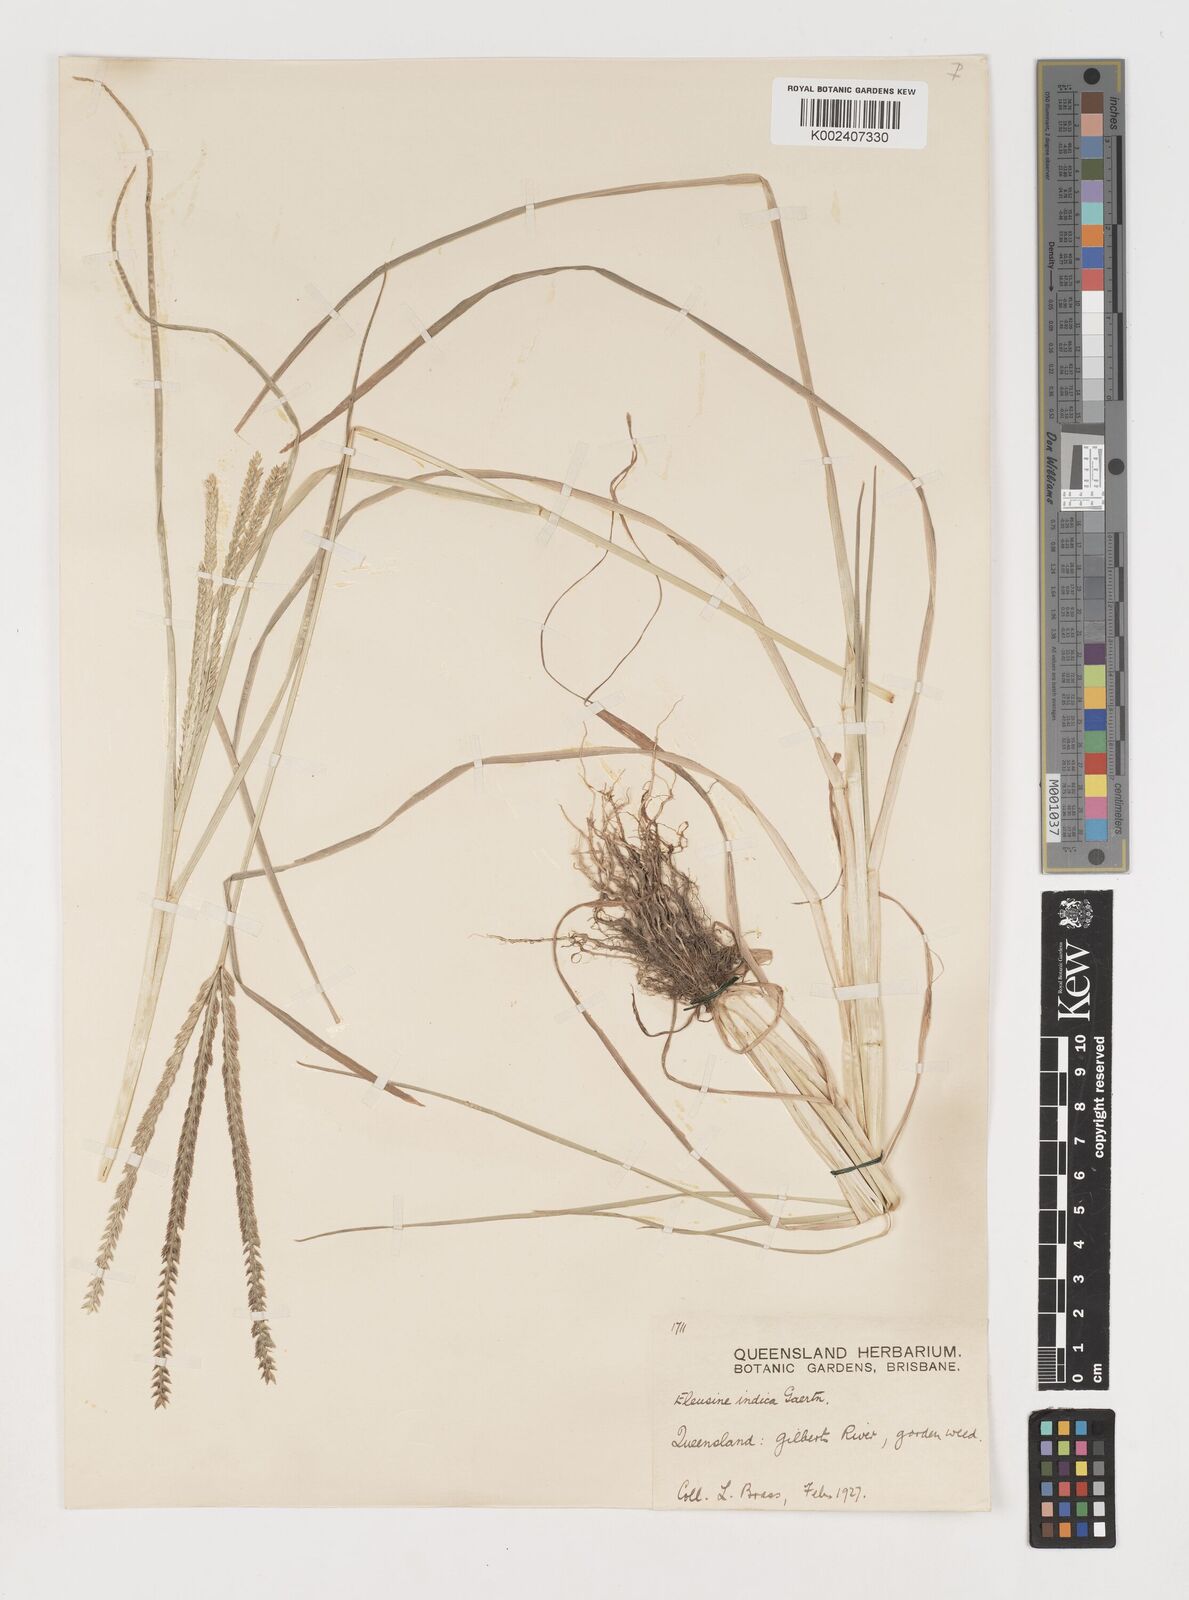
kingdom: Plantae
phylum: Tracheophyta
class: Liliopsida
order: Poales
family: Poaceae
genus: Eleusine
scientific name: Eleusine indica
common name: Yard-grass
